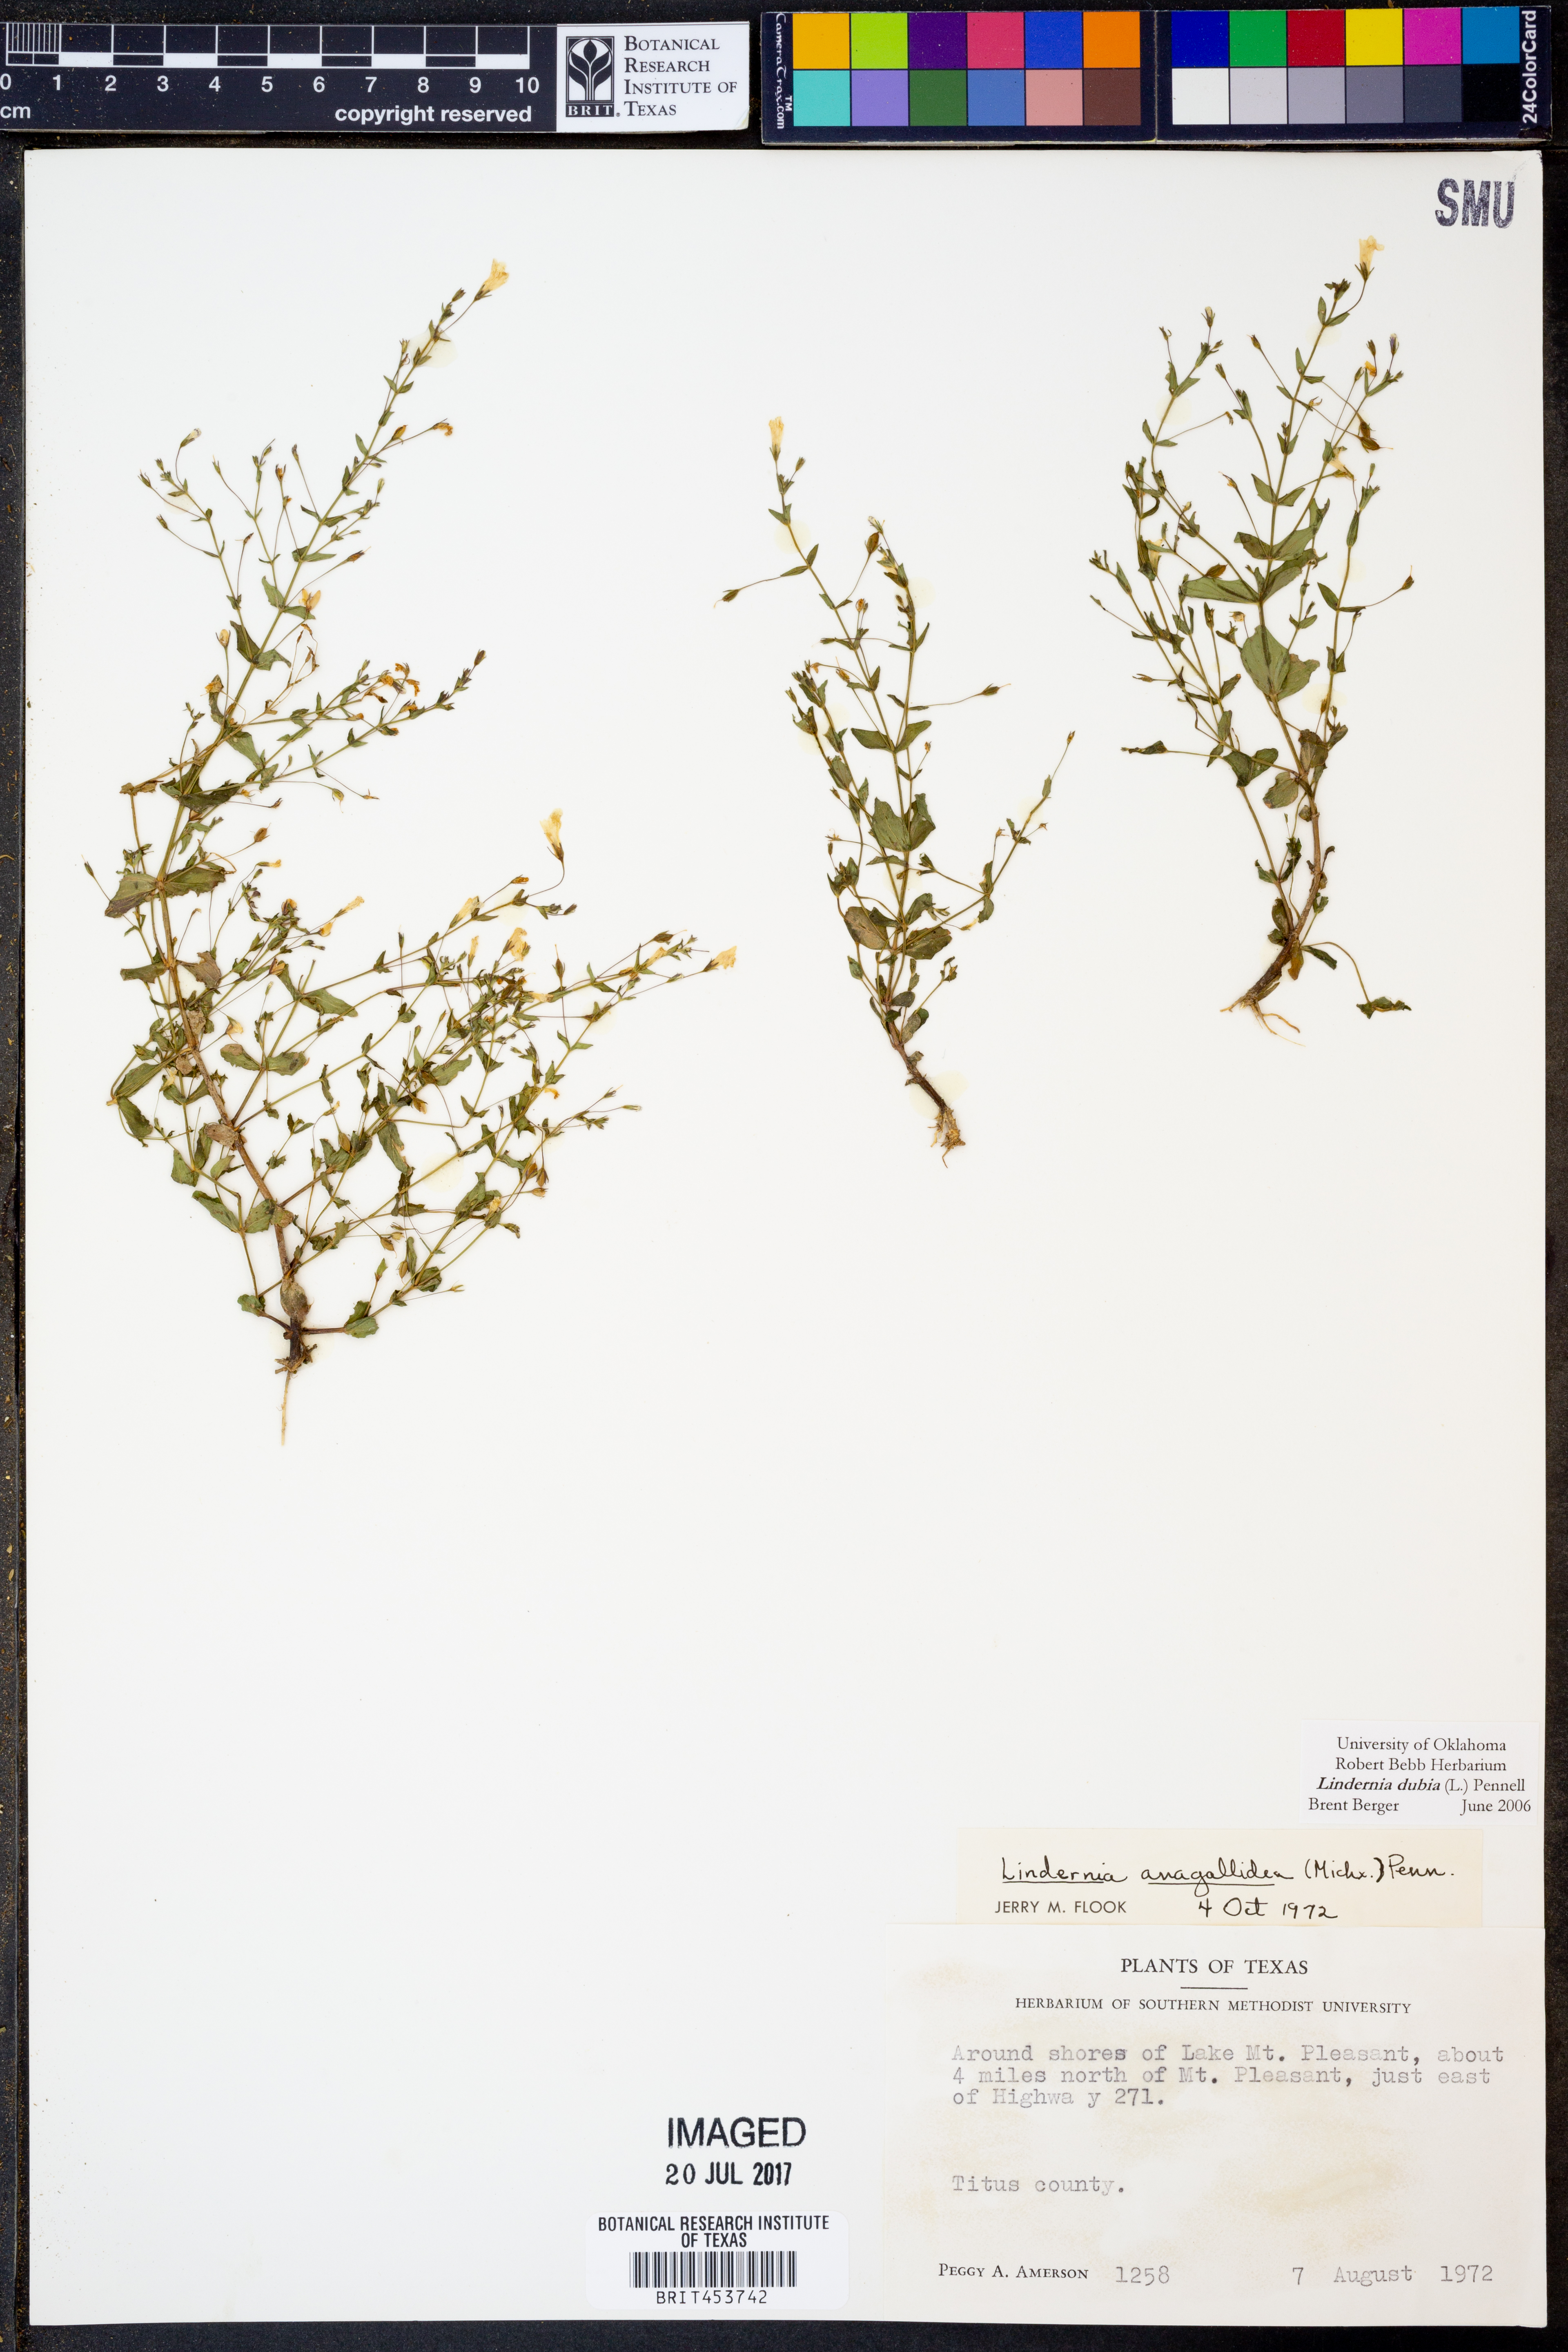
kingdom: Plantae
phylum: Tracheophyta
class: Magnoliopsida
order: Lamiales
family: Linderniaceae
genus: Lindernia
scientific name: Lindernia dubia
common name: Annual false pimpernel
